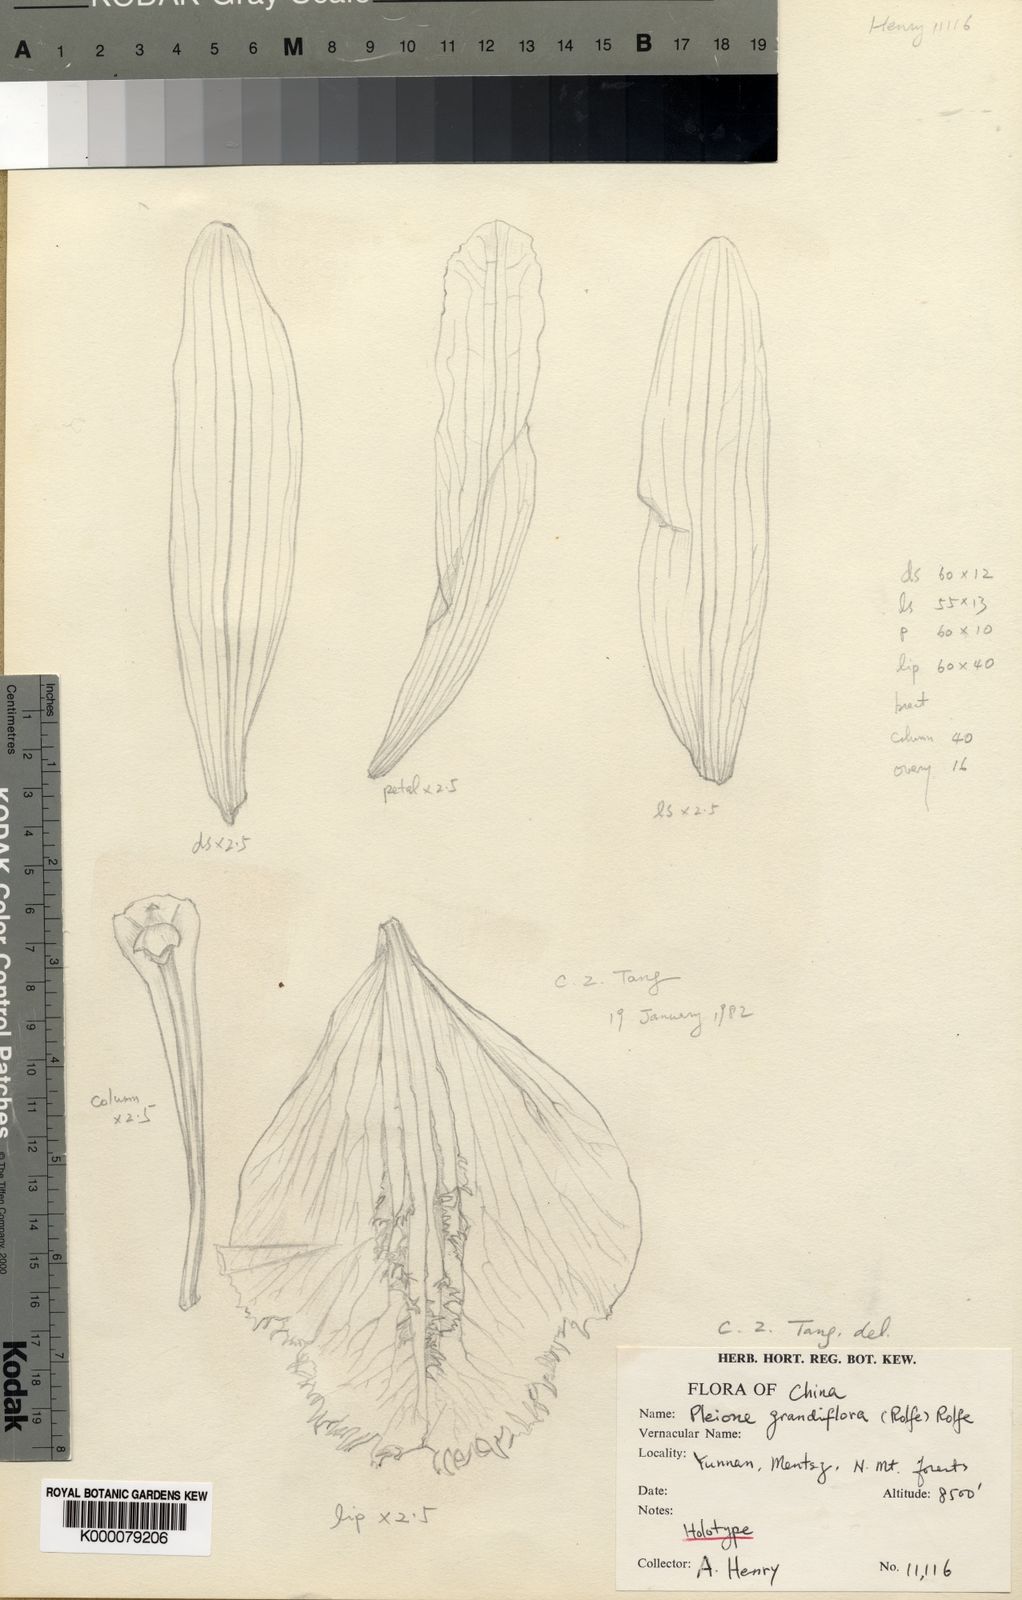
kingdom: Plantae
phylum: Tracheophyta
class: Liliopsida
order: Asparagales
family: Orchidaceae
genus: Pleione
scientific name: Pleione grandiflora
